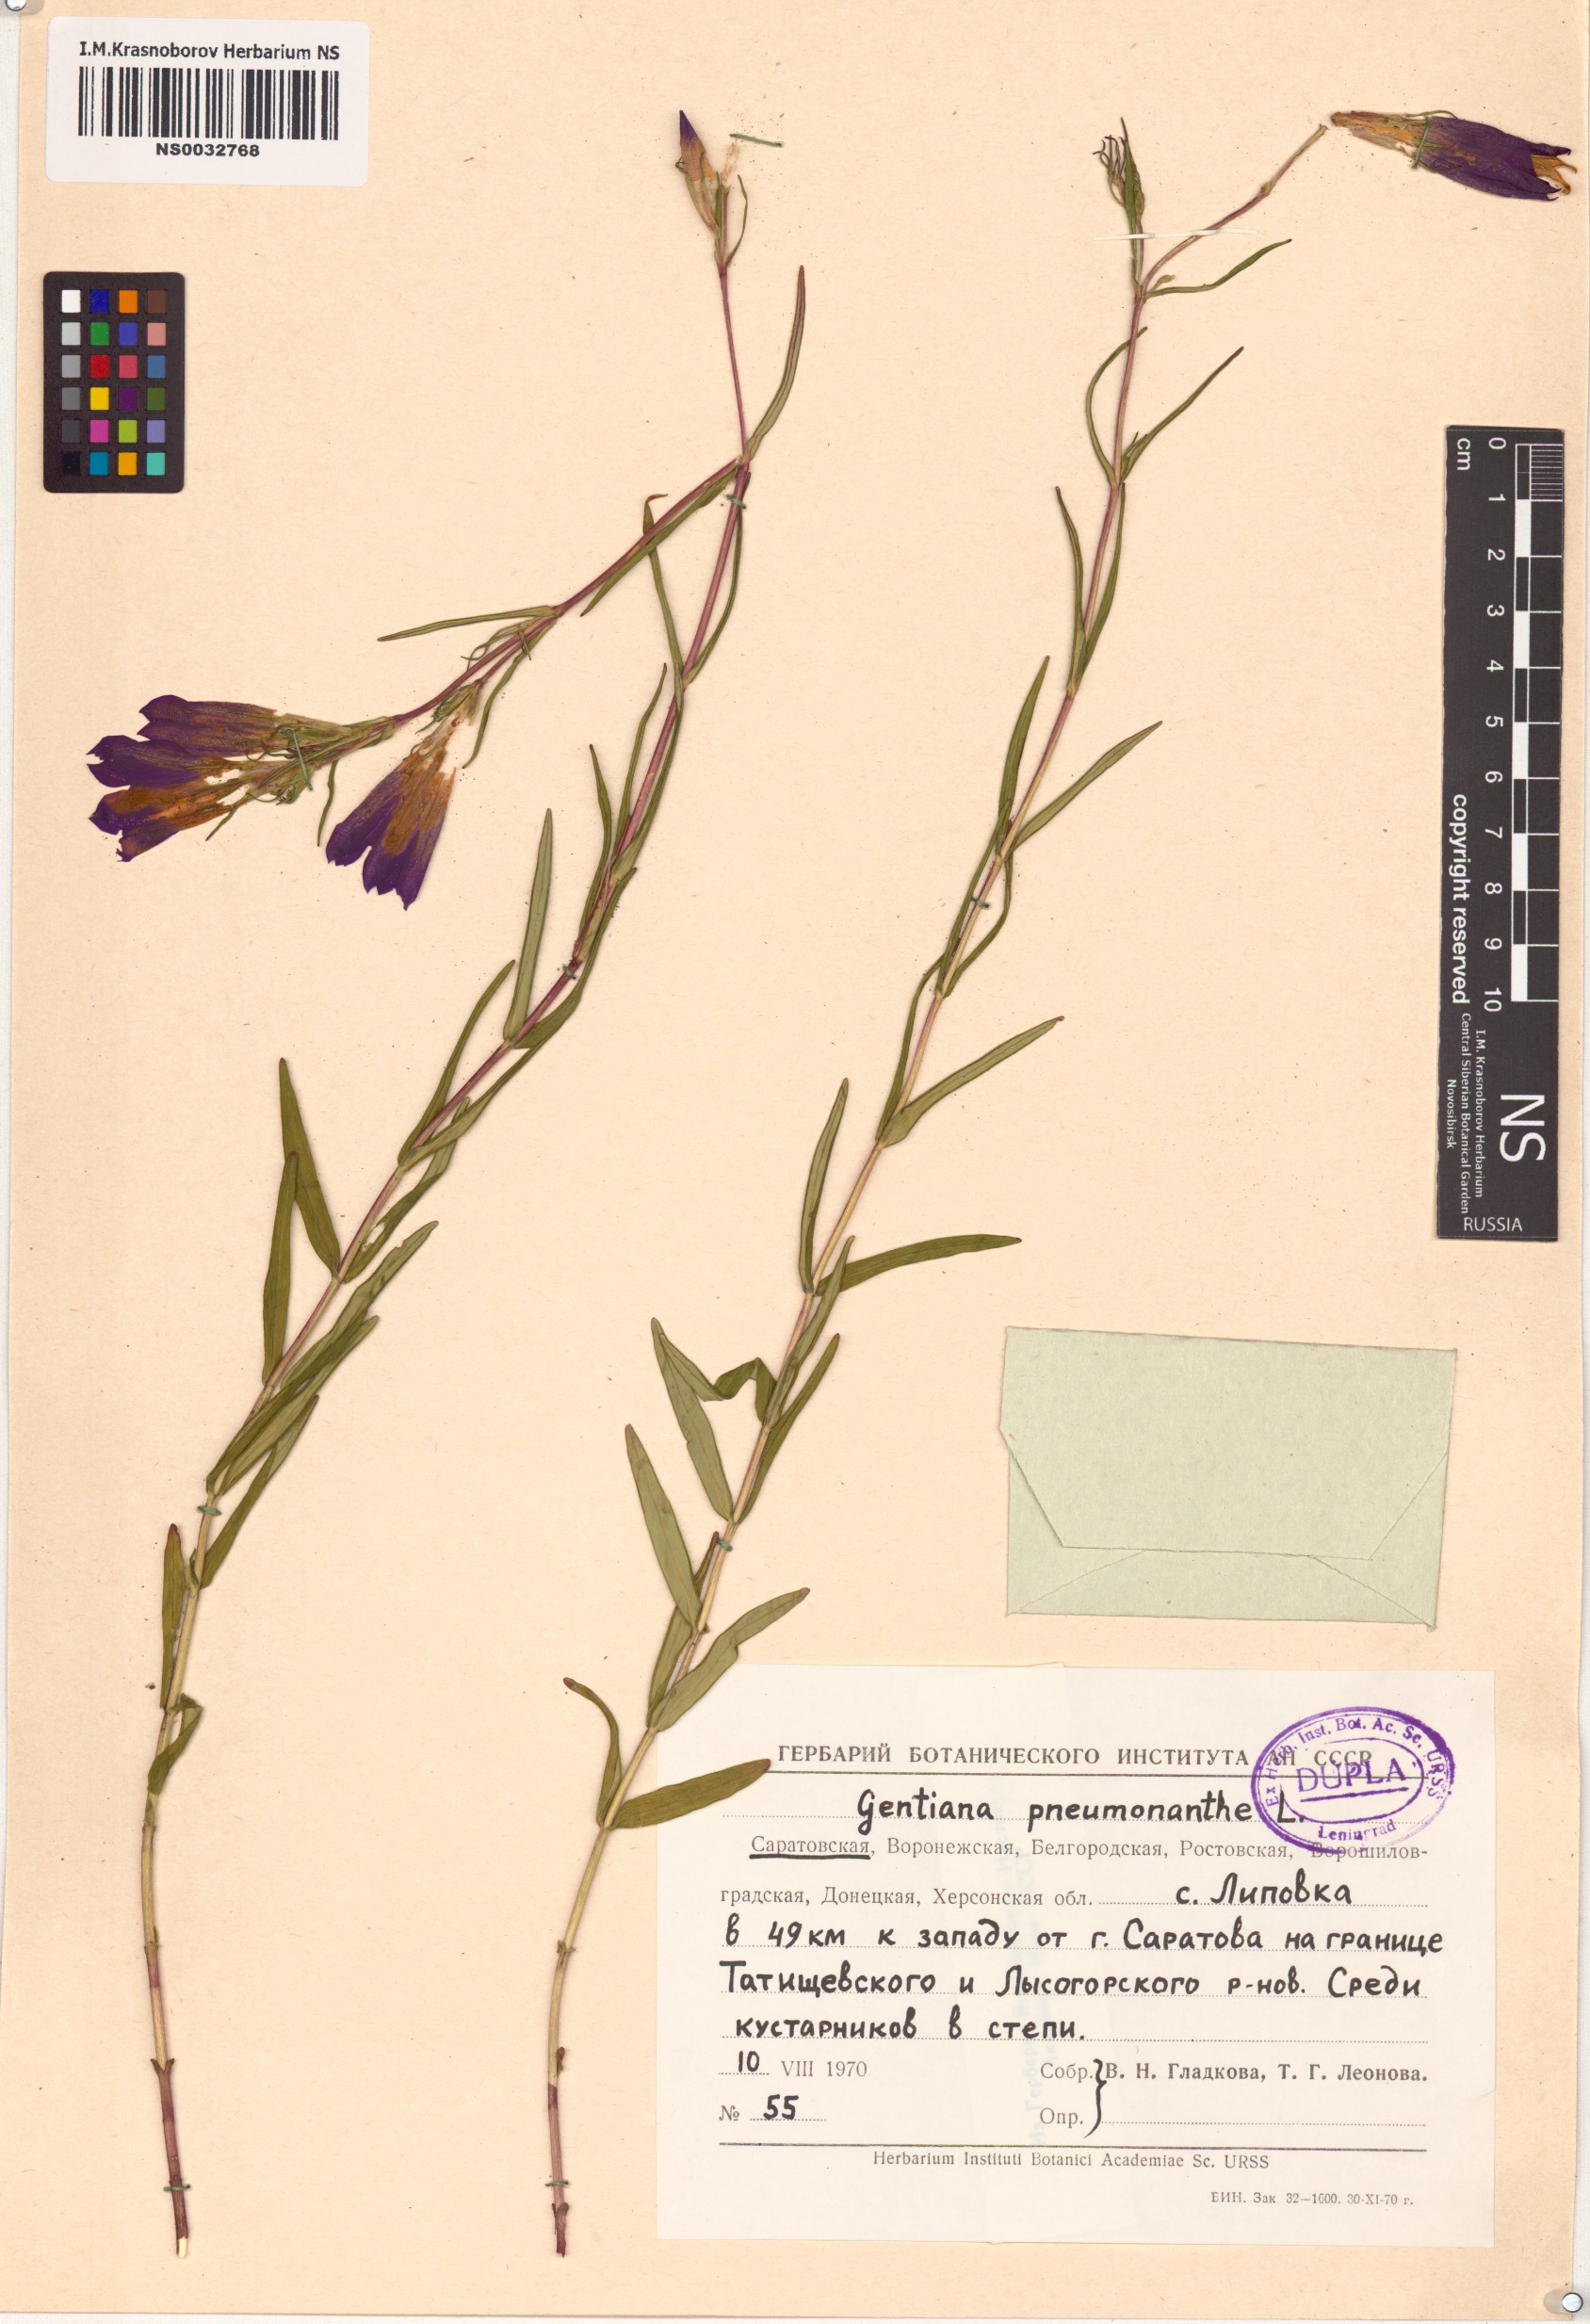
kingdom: Plantae
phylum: Tracheophyta
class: Magnoliopsida
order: Gentianales
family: Gentianaceae
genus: Gentiana
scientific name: Gentiana pneumonanthe
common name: Marsh gentian
